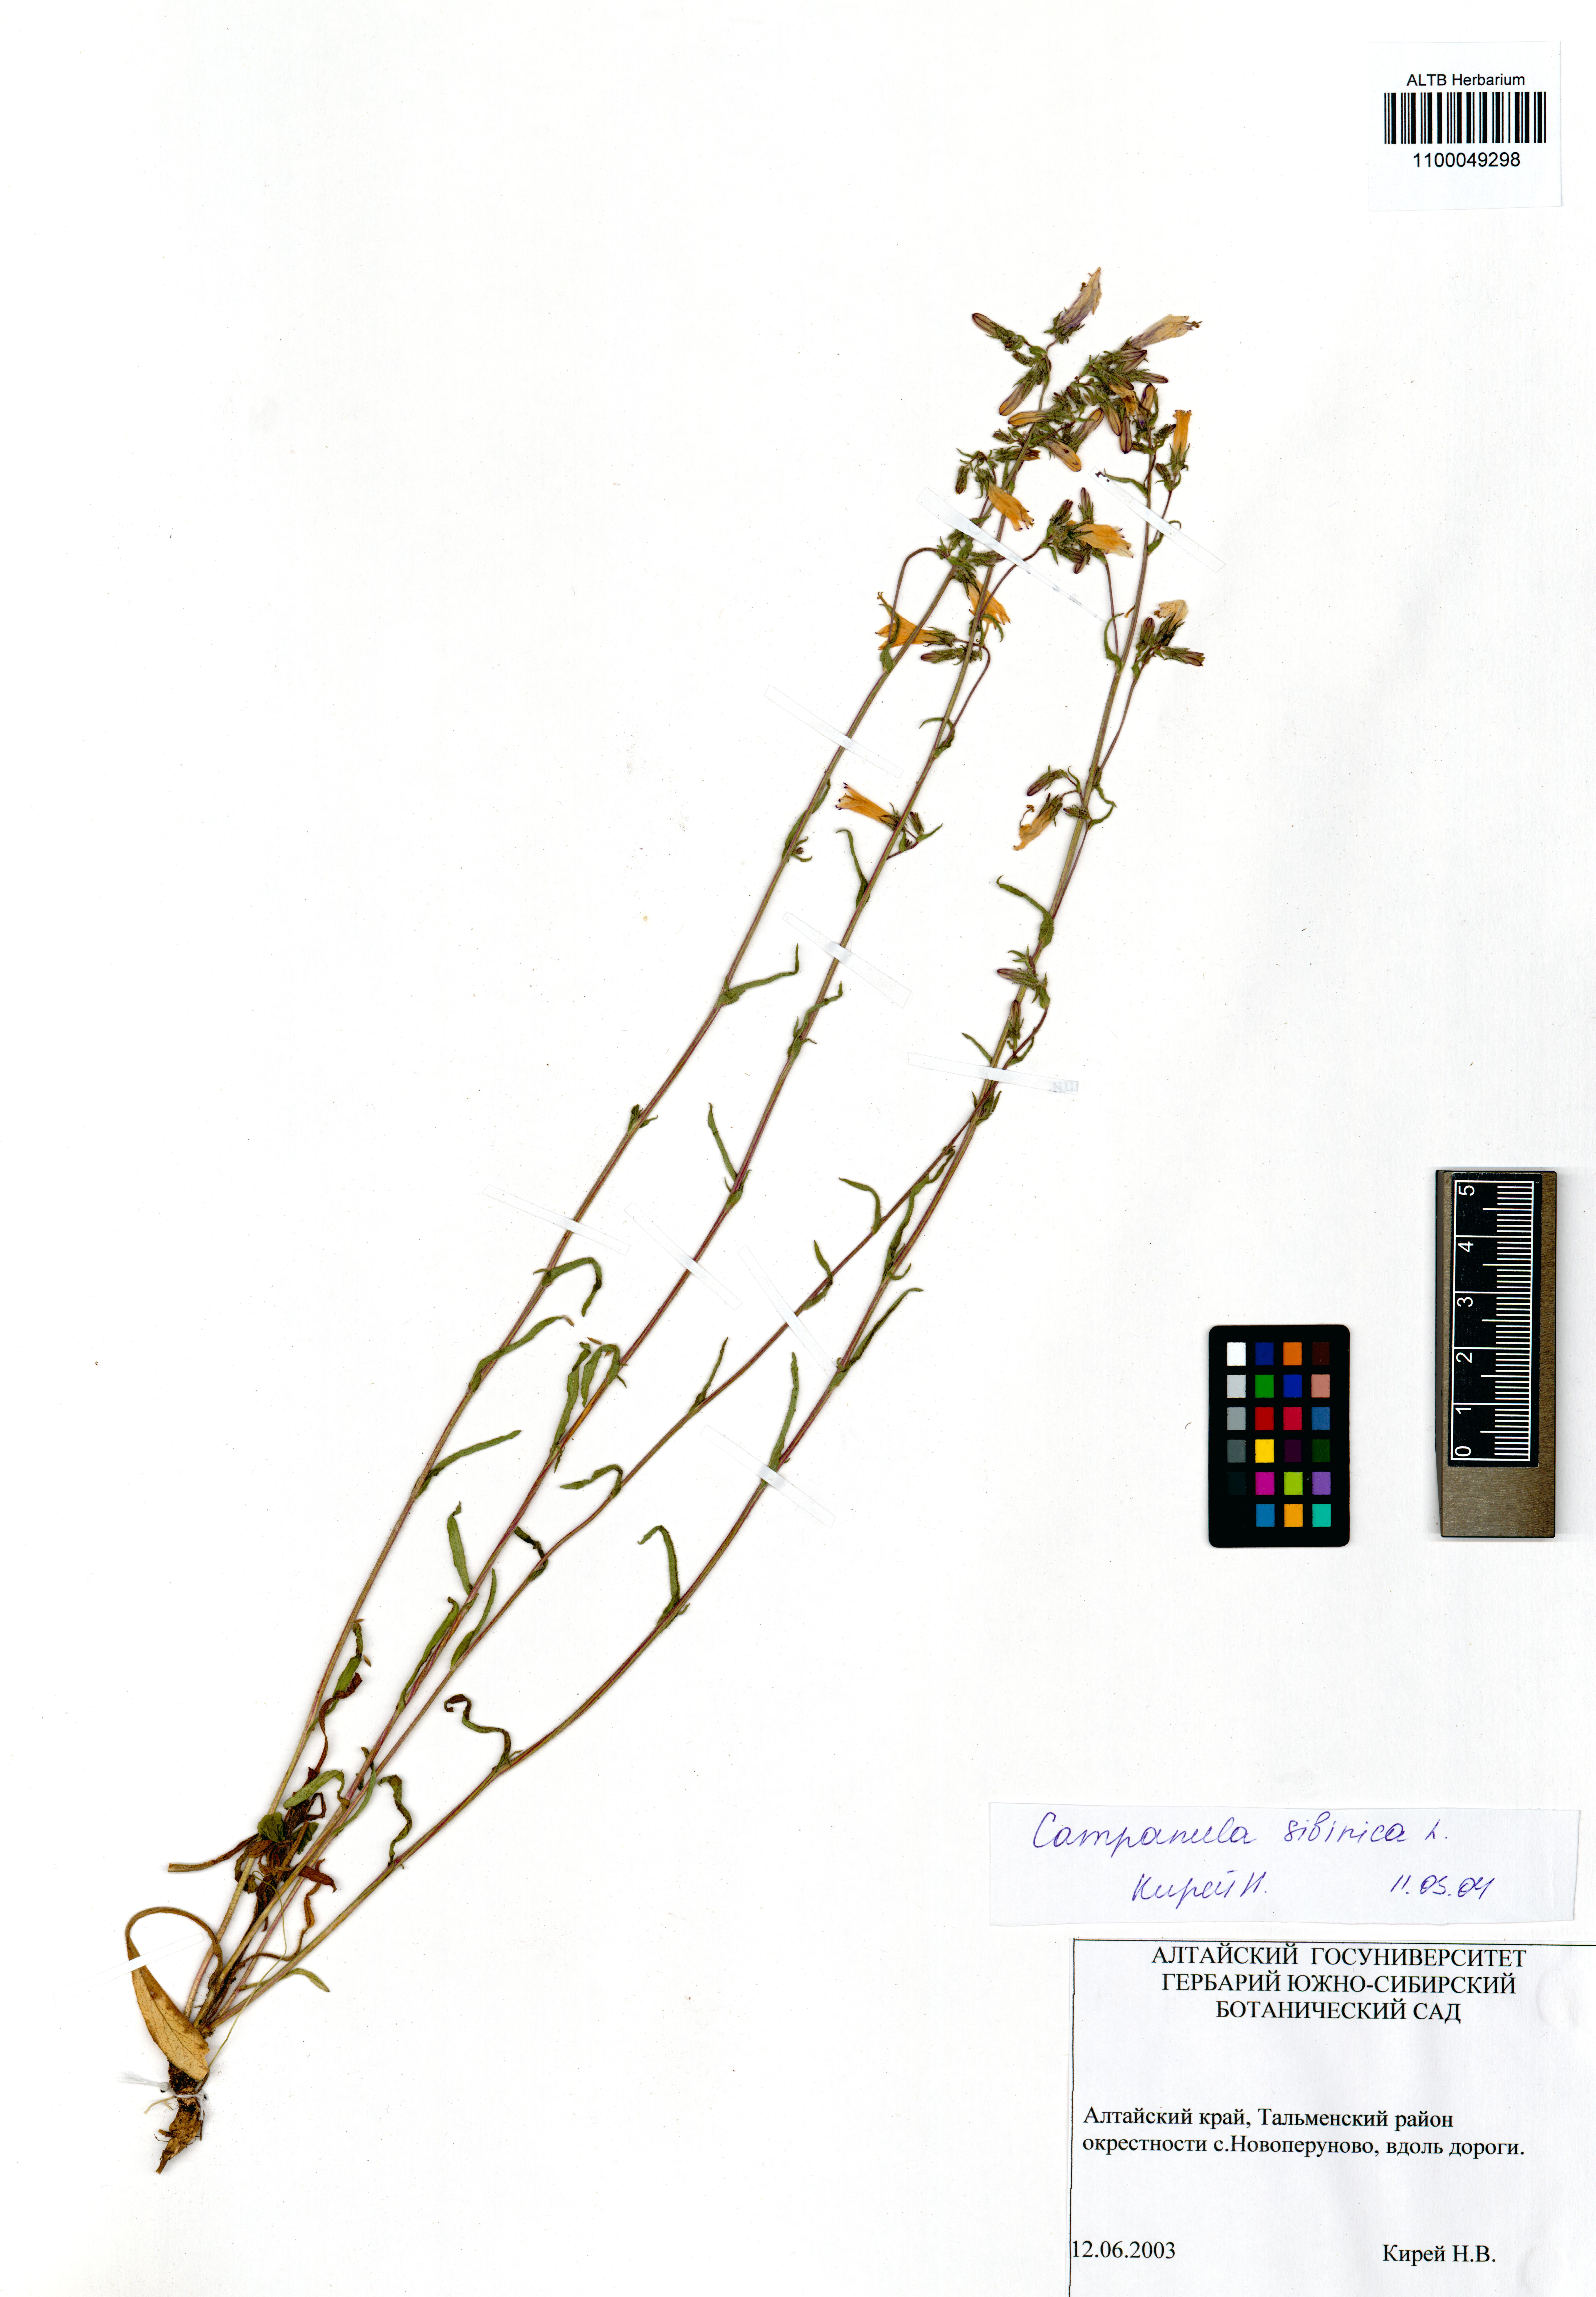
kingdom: Plantae
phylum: Tracheophyta
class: Magnoliopsida
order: Asterales
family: Campanulaceae
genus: Campanula
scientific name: Campanula sibirica
